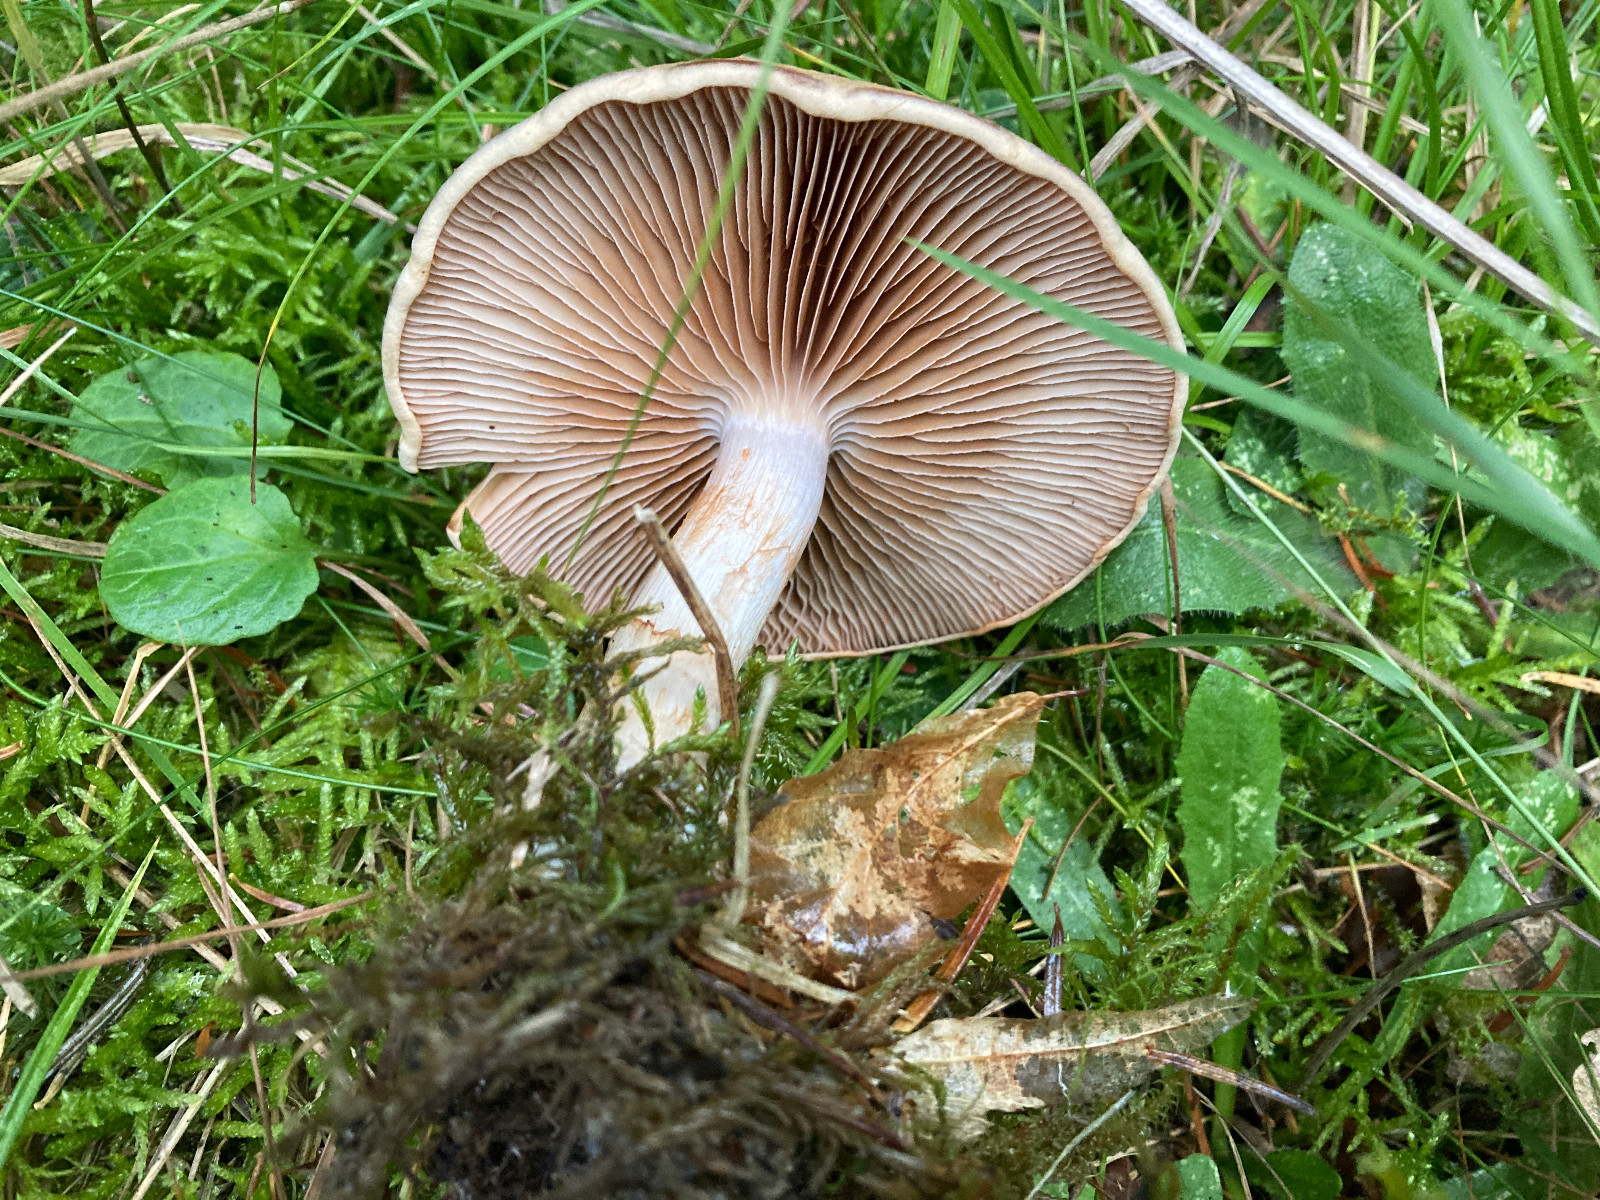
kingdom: Fungi
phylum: Basidiomycota
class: Agaricomycetes
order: Agaricales
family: Cortinariaceae
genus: Cortinarius
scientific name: Cortinarius caninus
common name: gran-slørhat
